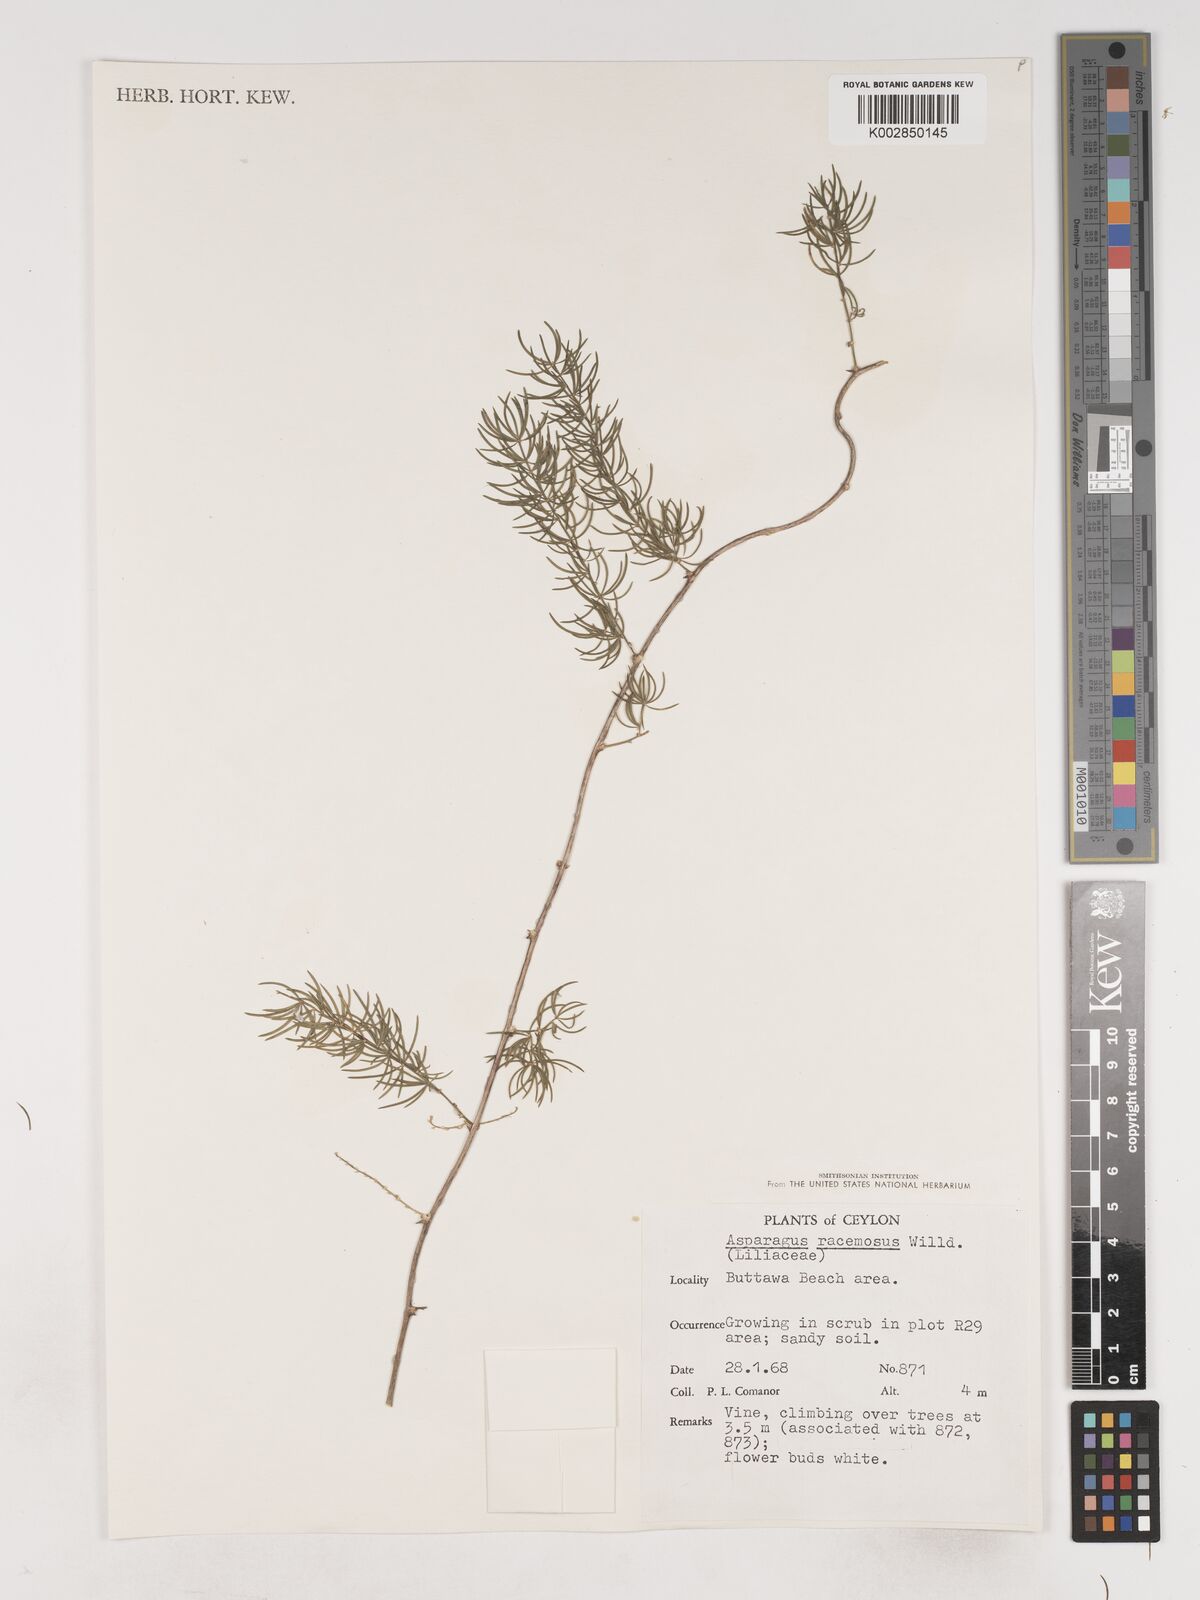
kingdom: Plantae
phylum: Tracheophyta
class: Liliopsida
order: Asparagales
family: Asparagaceae
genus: Asparagus
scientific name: Asparagus racemosus
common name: Asparagus-fern
